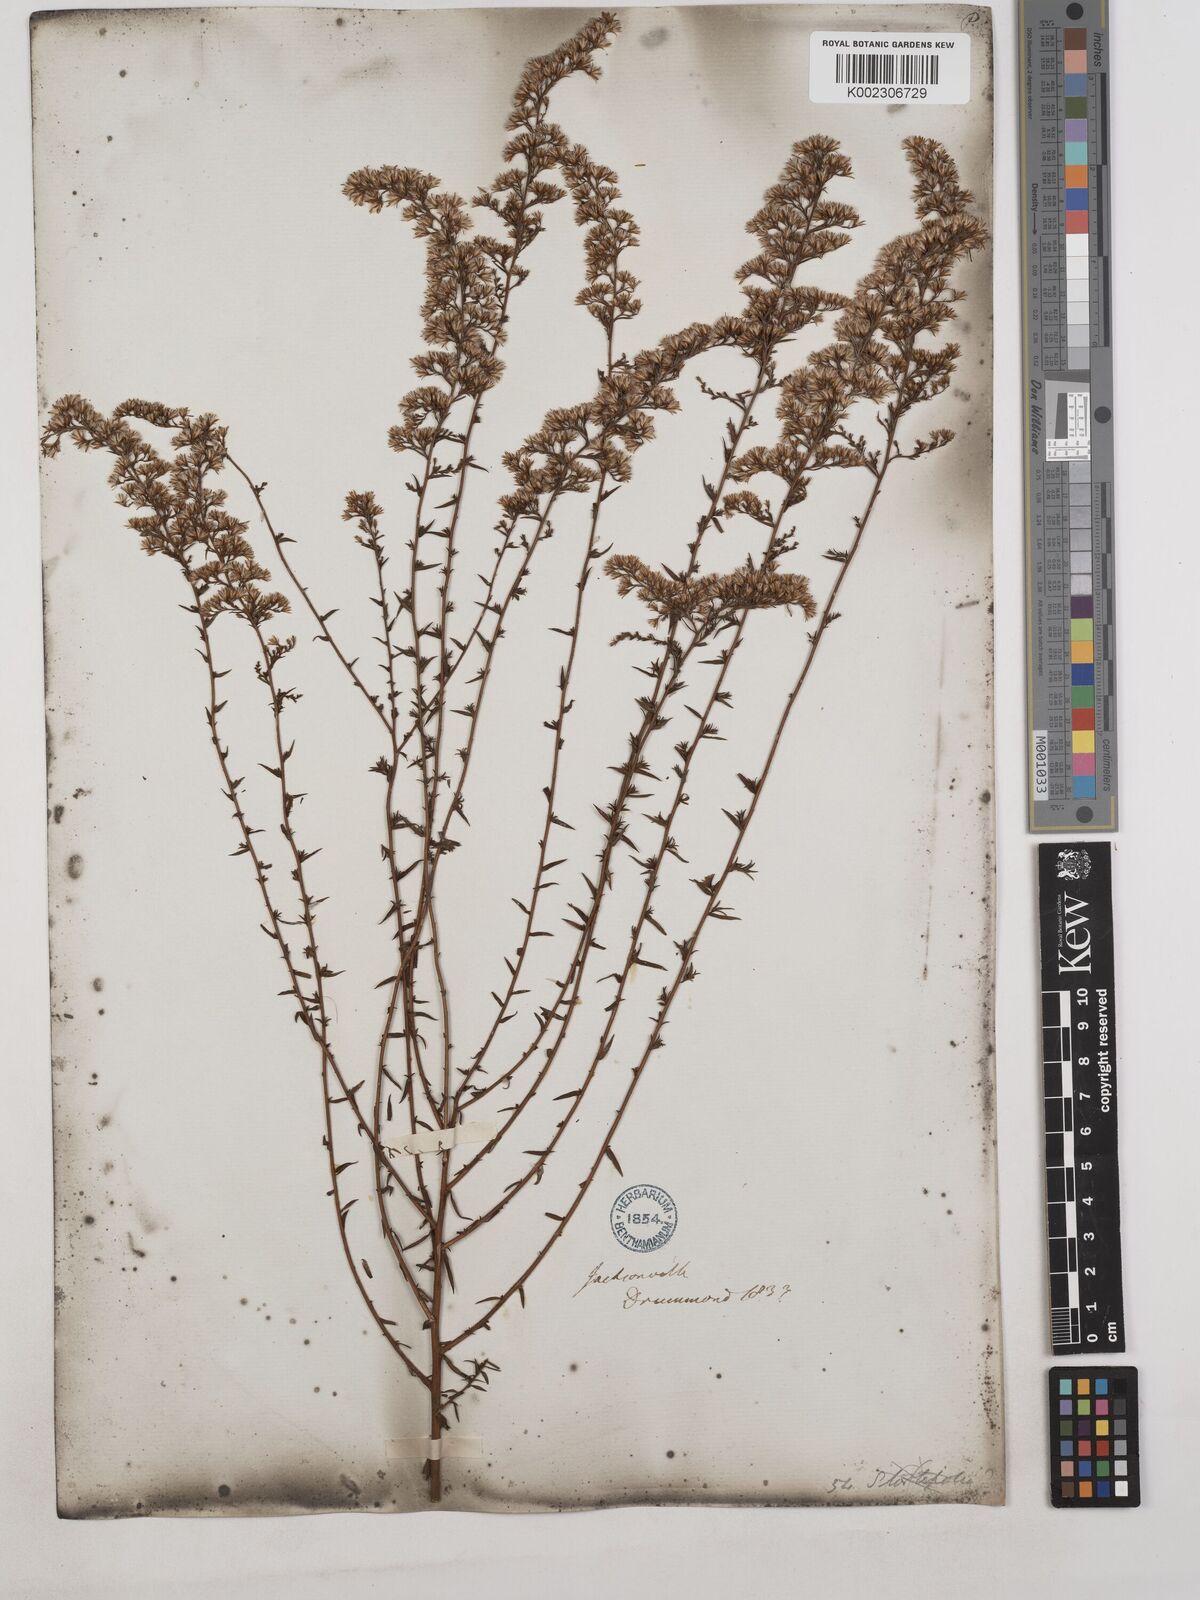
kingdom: Plantae
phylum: Tracheophyta
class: Magnoliopsida
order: Asterales
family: Asteraceae
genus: Solidago
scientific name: Solidago tortifolia
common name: Twisted-leaf goldenrod
